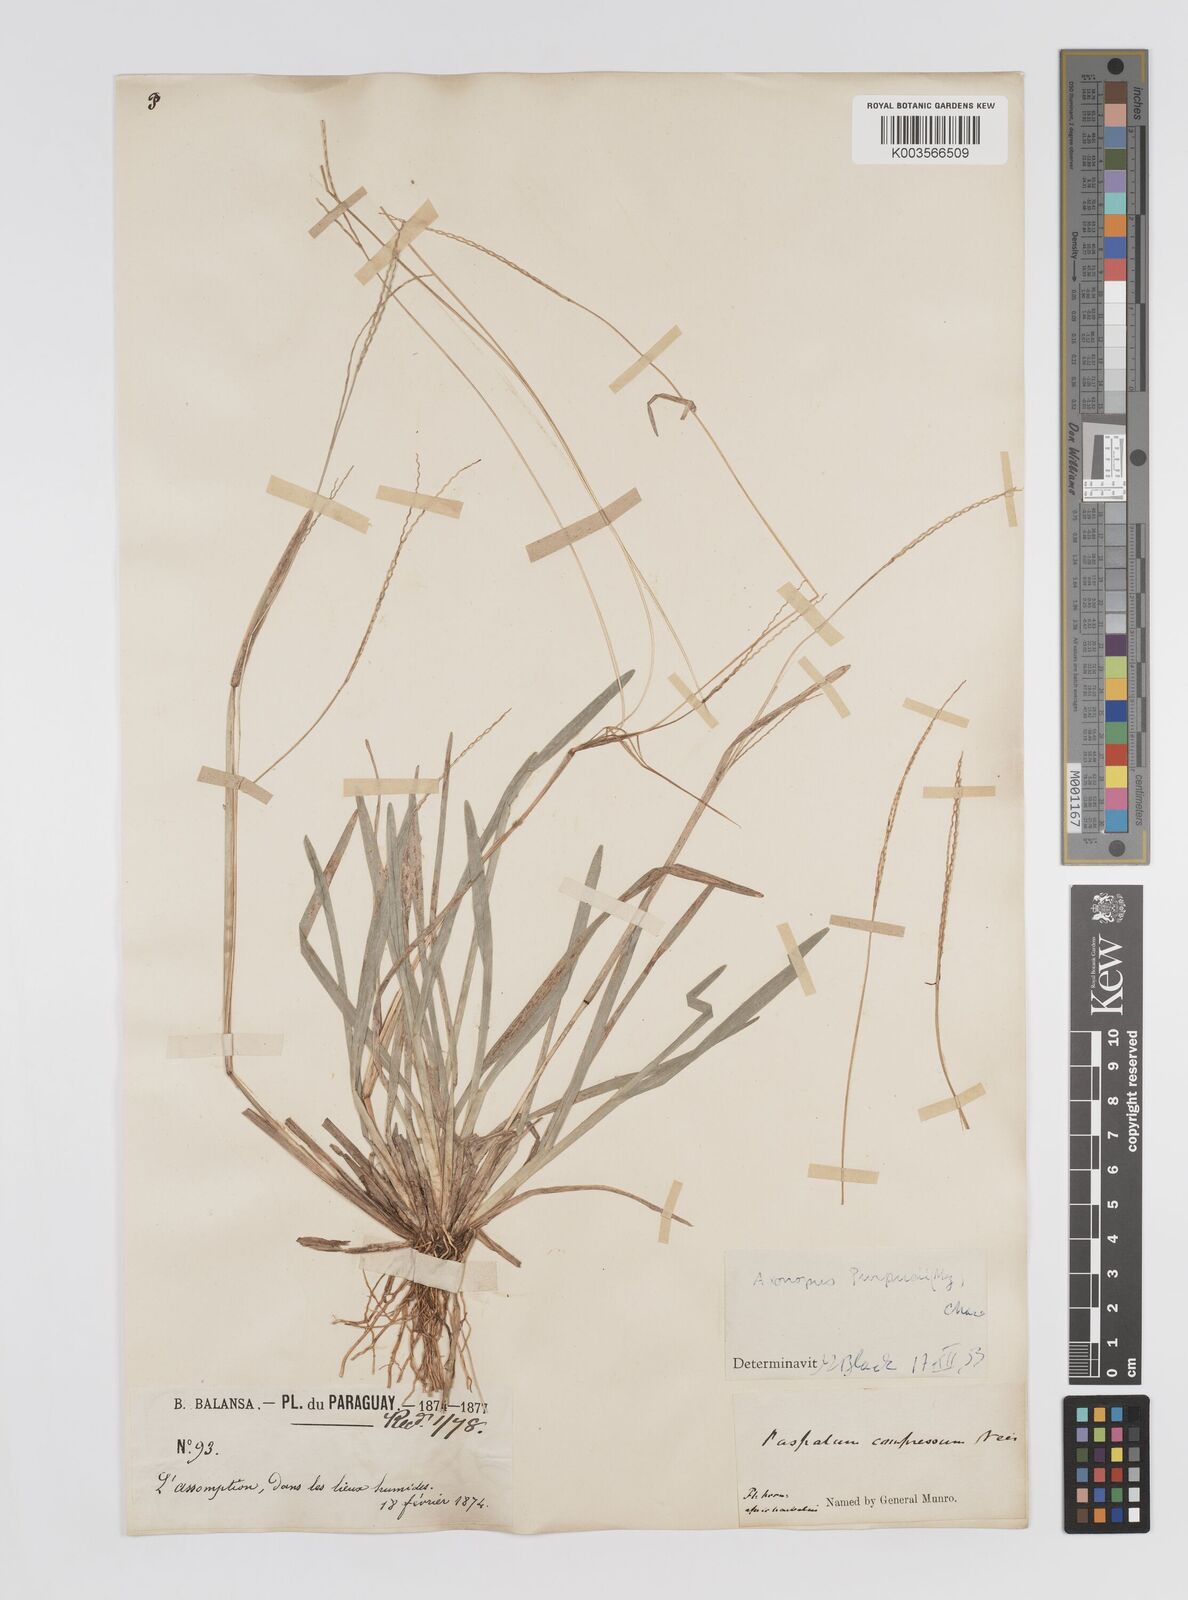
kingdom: Plantae
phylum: Tracheophyta
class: Liliopsida
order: Poales
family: Poaceae
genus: Axonopus
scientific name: Axonopus purpusii
